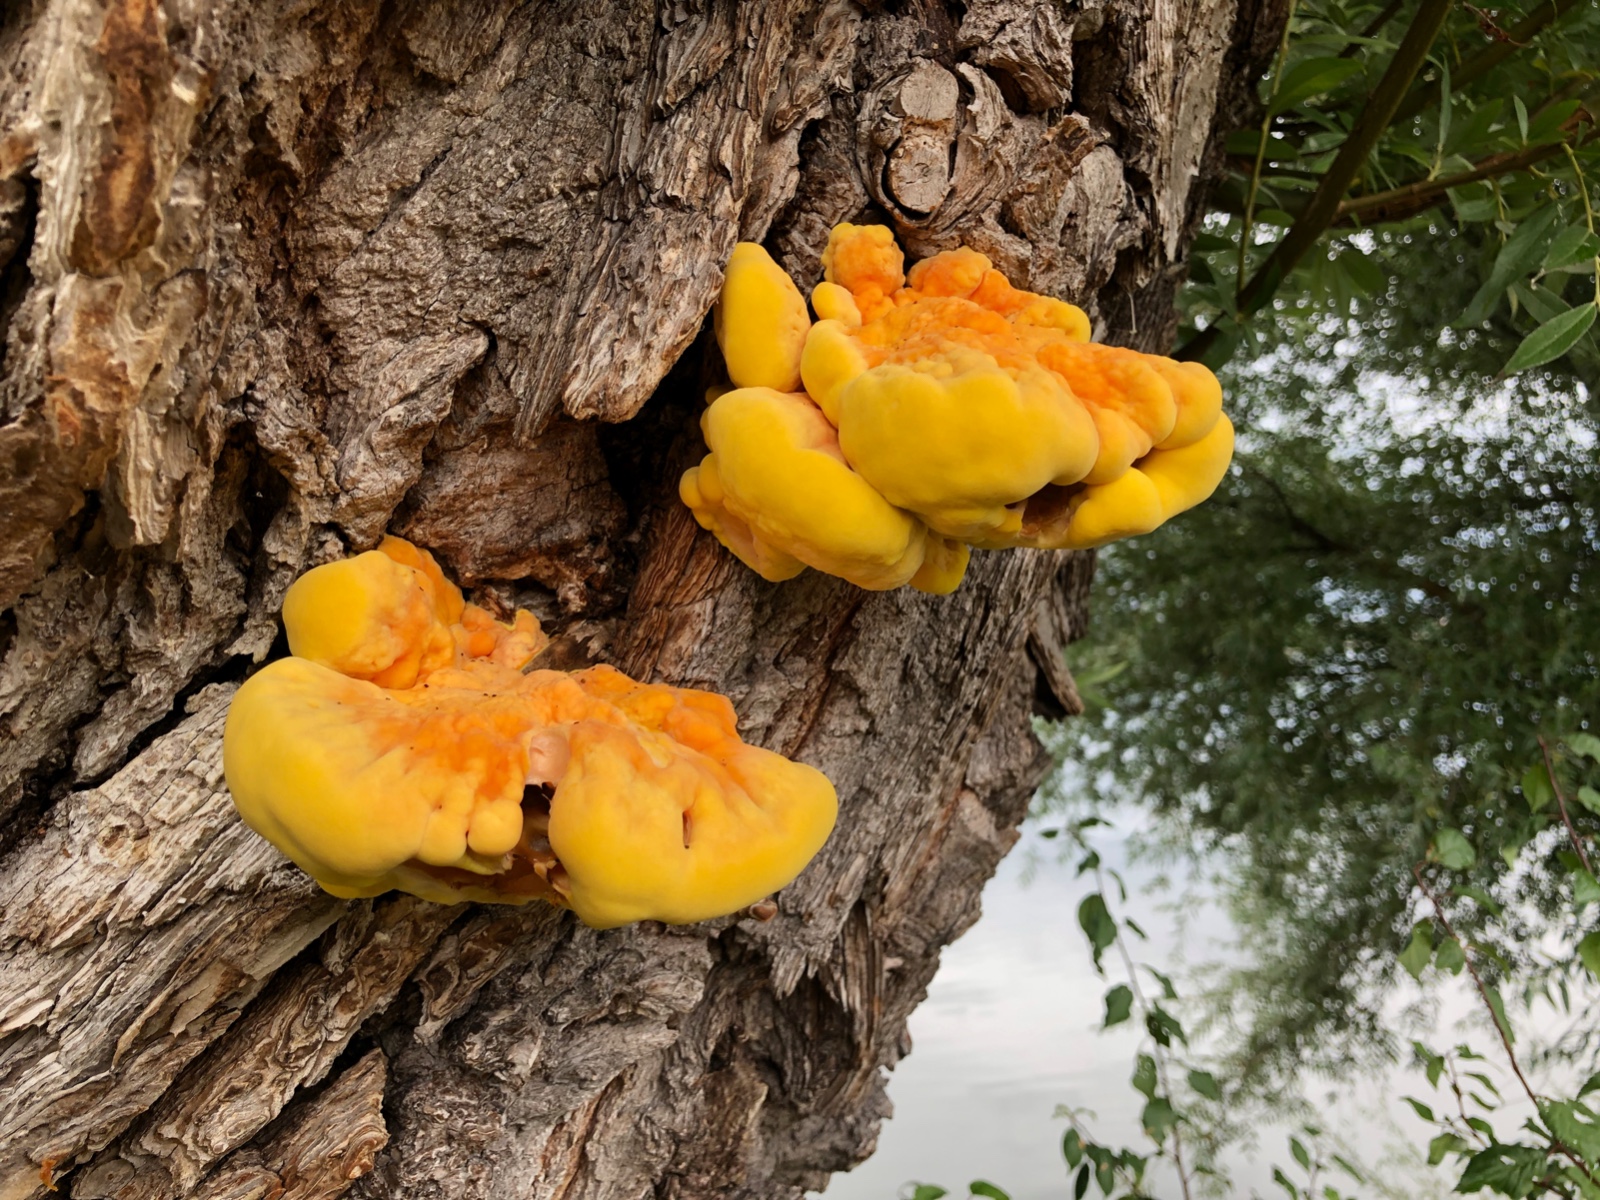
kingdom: Fungi
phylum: Basidiomycota
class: Agaricomycetes
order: Polyporales
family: Laetiporaceae
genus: Laetiporus
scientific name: Laetiporus sulphureus
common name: svovlporesvamp
